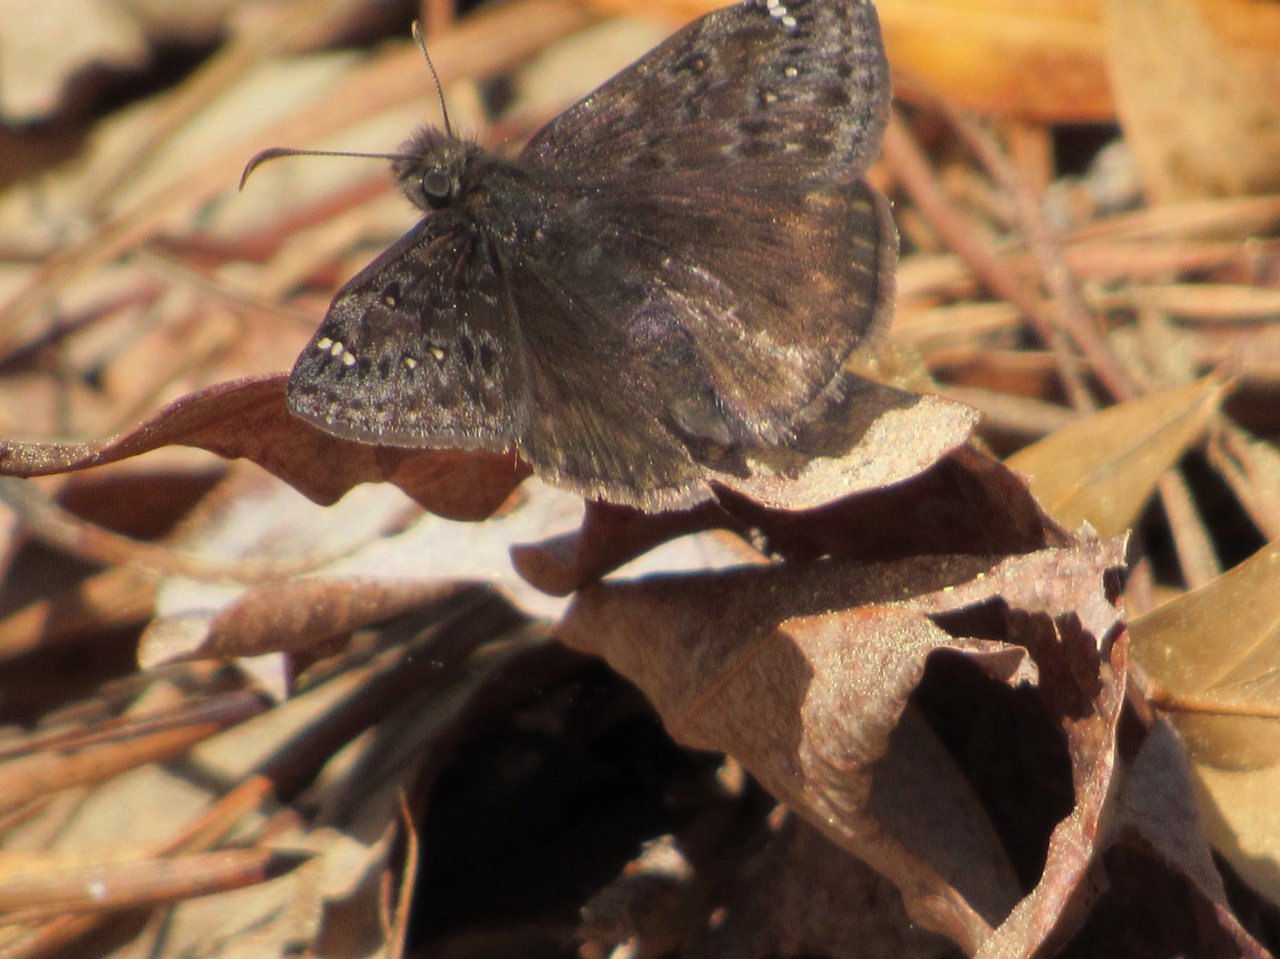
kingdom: Animalia
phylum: Arthropoda
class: Insecta
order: Lepidoptera
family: Hesperiidae
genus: Gesta
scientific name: Gesta
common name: Juvenal's Duskywing
